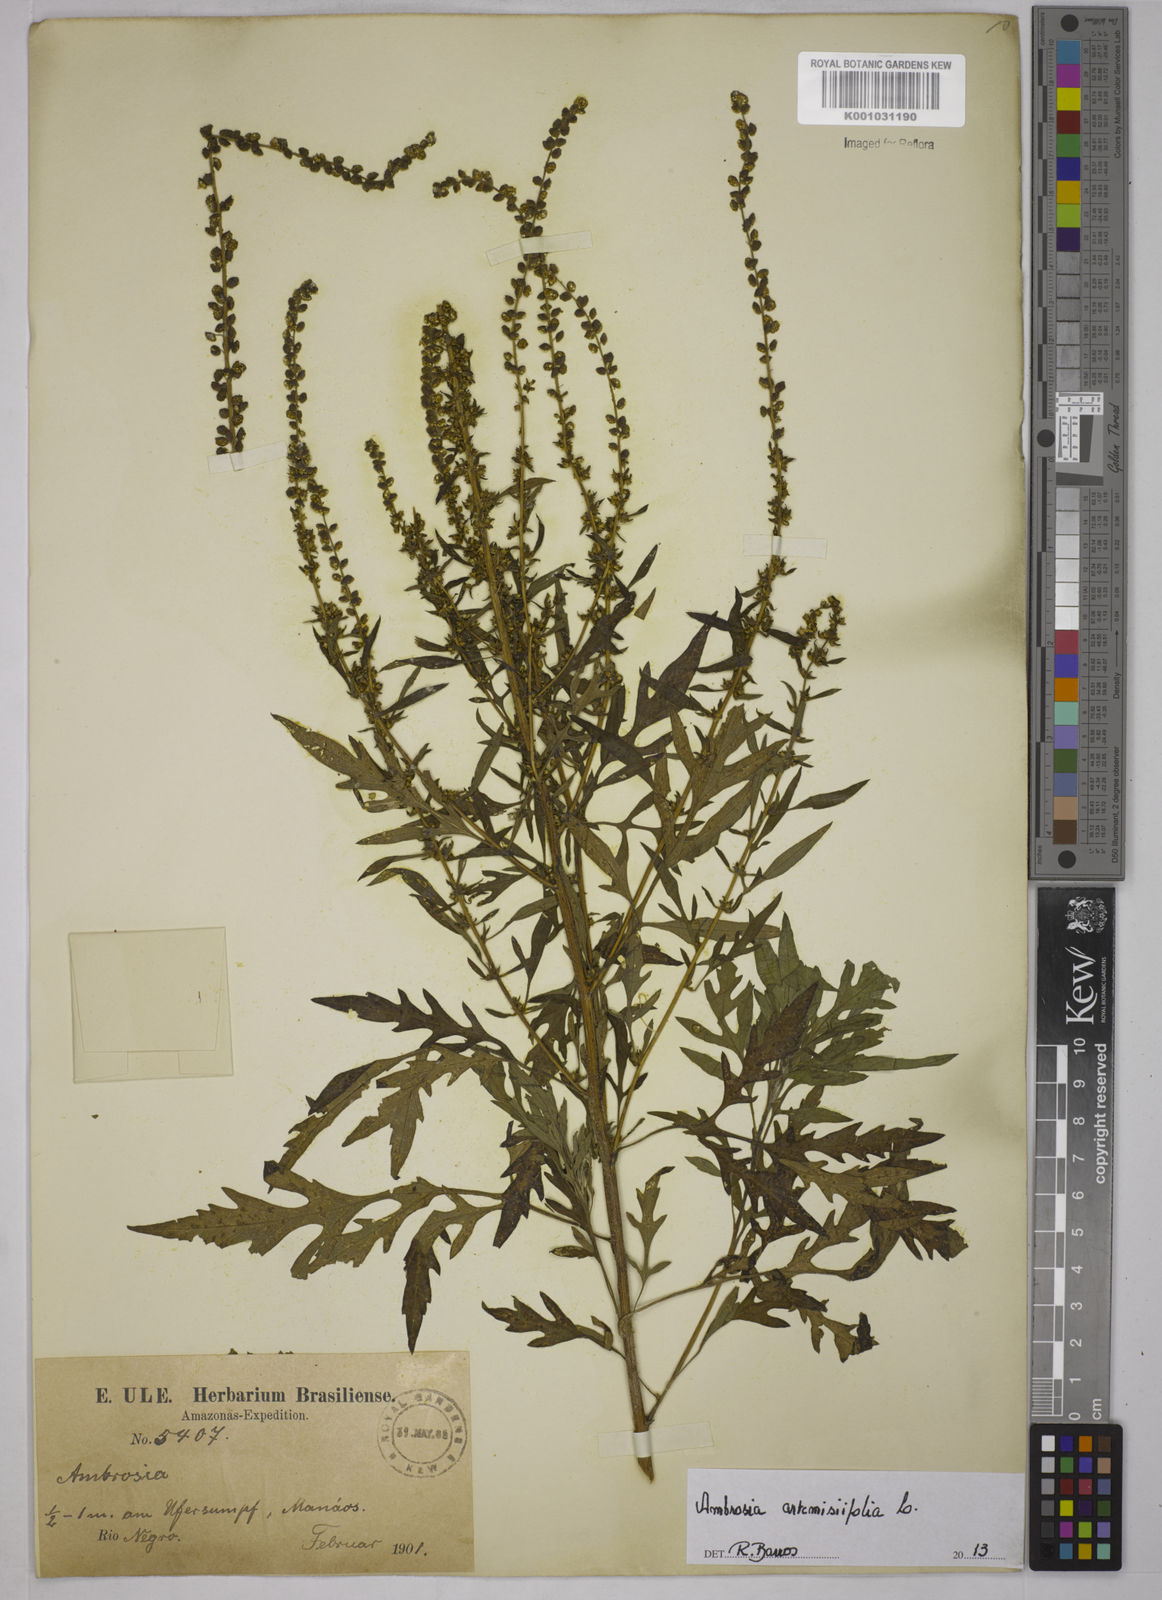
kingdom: Plantae
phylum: Tracheophyta
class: Magnoliopsida
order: Asterales
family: Asteraceae
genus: Ambrosia
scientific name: Ambrosia artemisiifolia
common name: Annual ragweed
